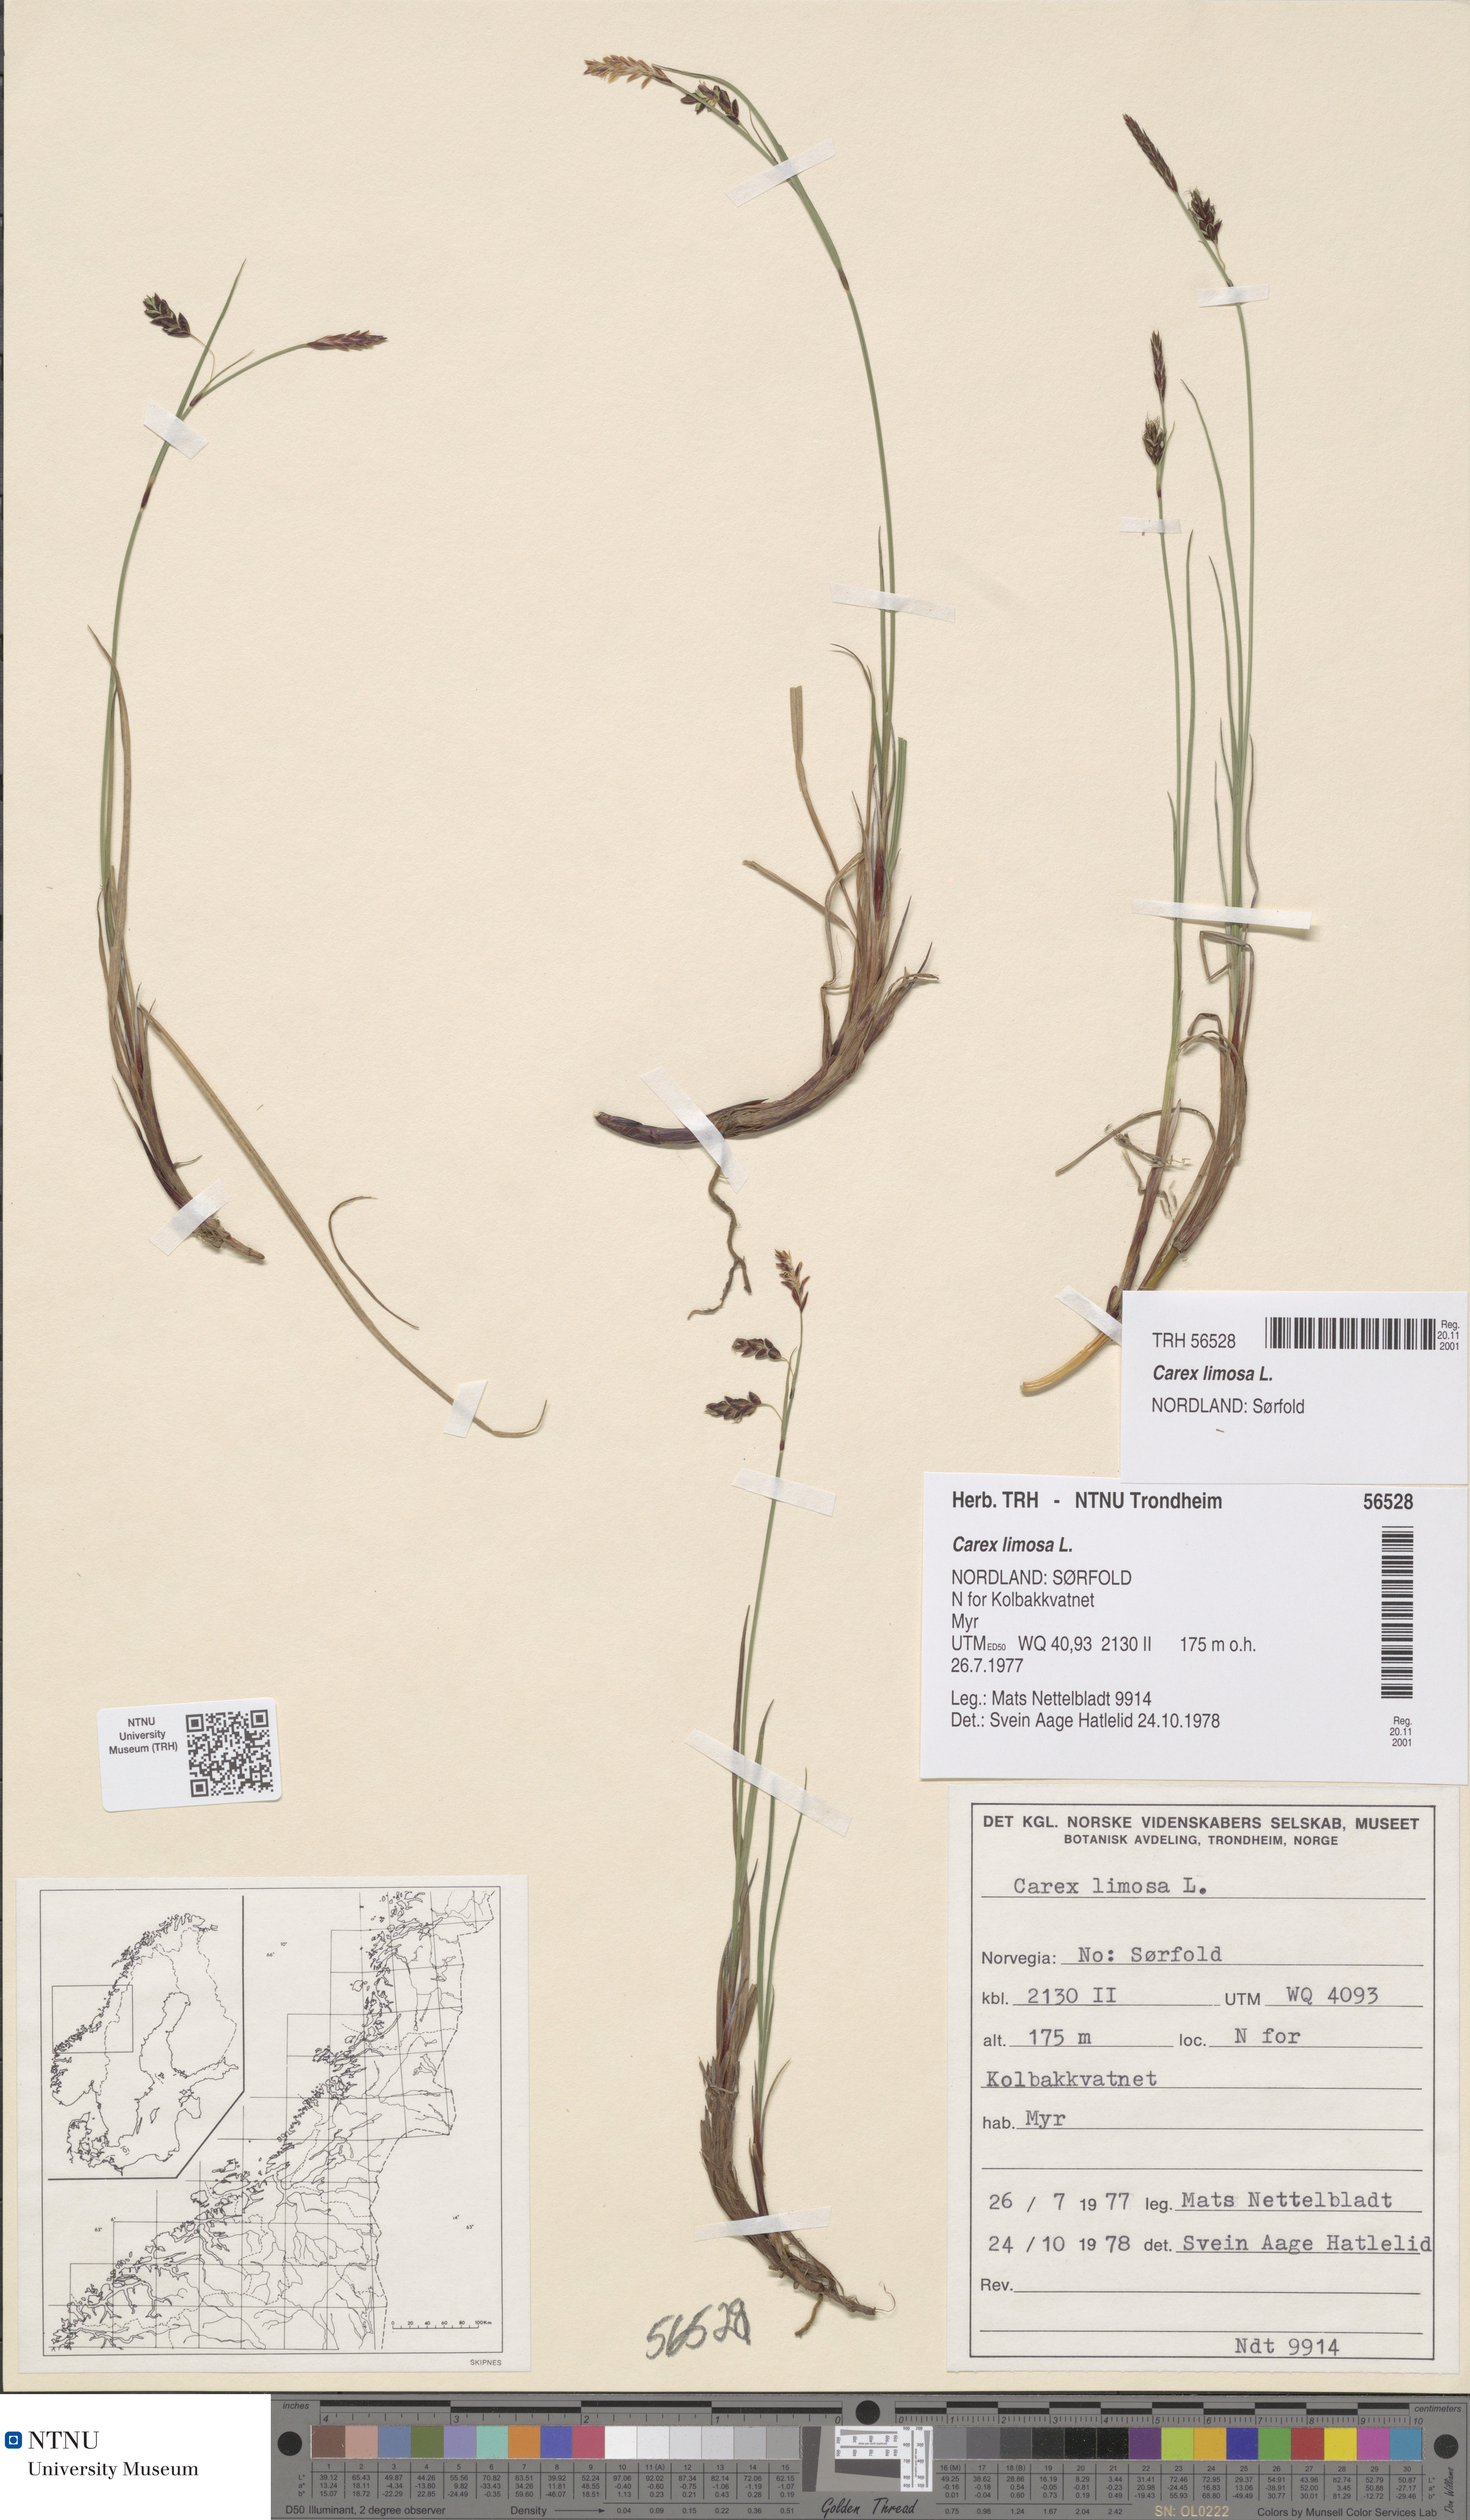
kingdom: Plantae
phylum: Tracheophyta
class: Liliopsida
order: Poales
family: Cyperaceae
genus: Carex
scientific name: Carex limosa
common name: Bog sedge
